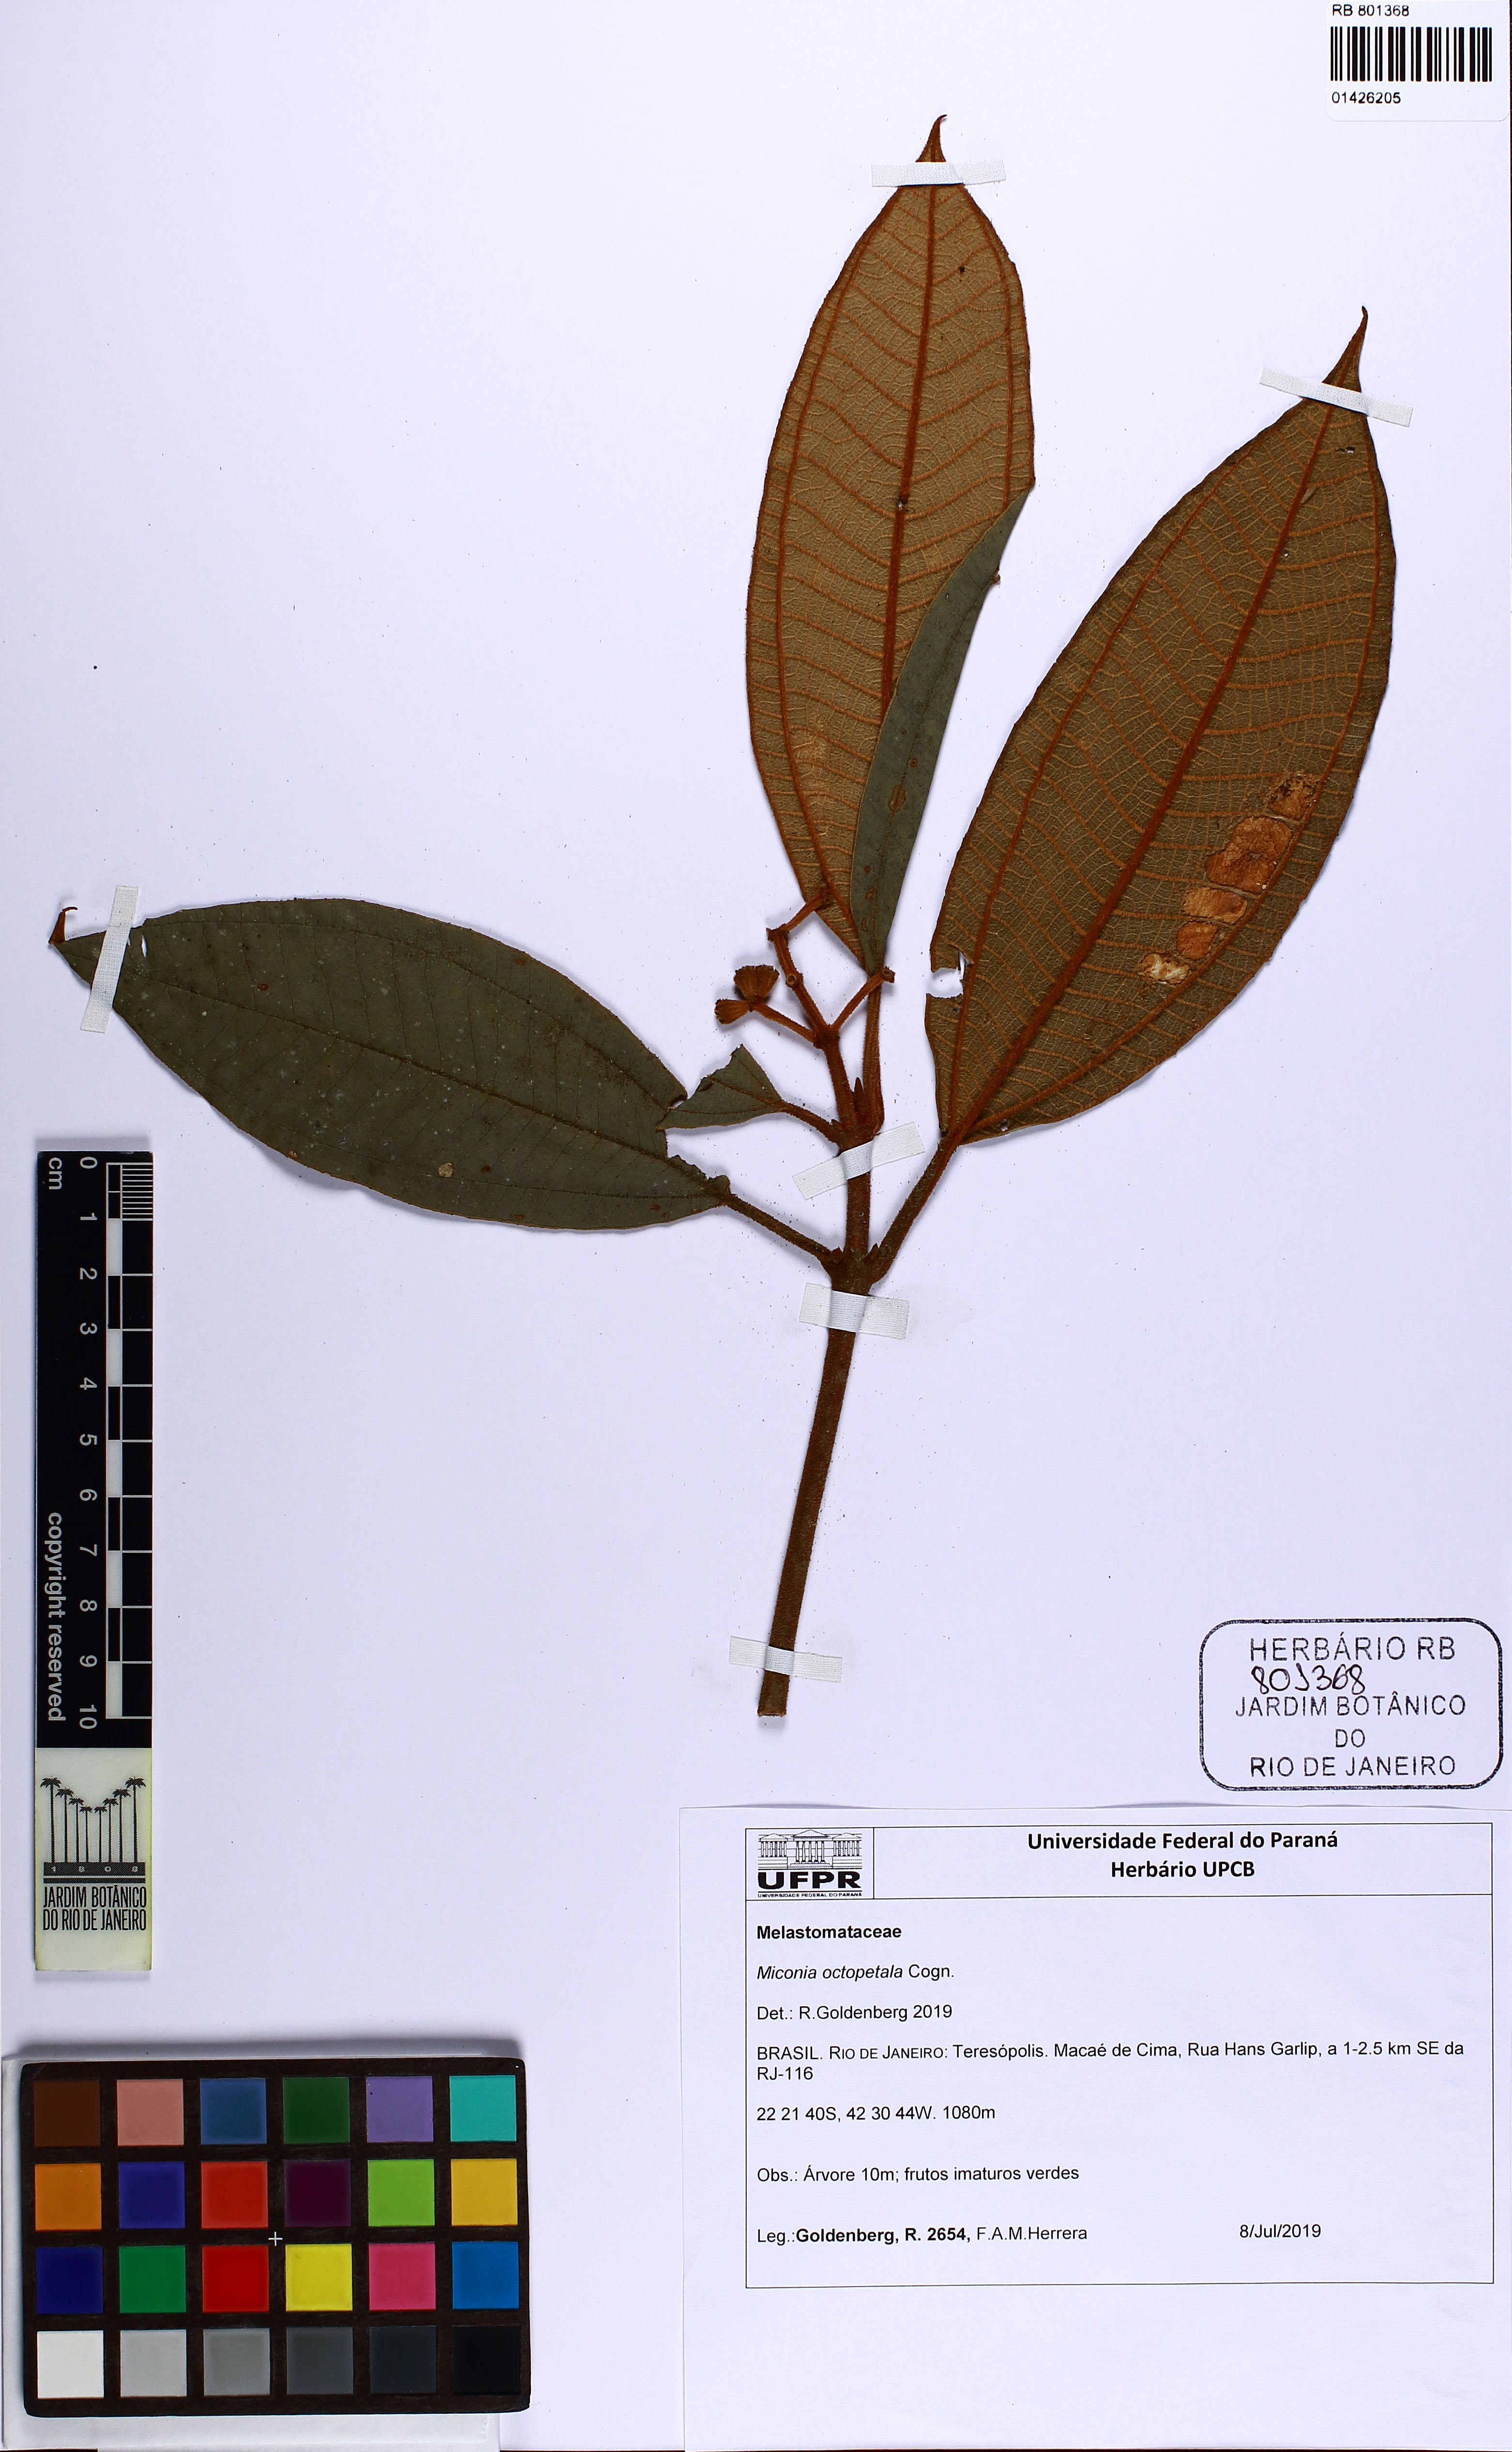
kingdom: Plantae
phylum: Tracheophyta
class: Magnoliopsida
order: Myrtales
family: Melastomataceae
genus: Miconia
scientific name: Miconia octopetala
